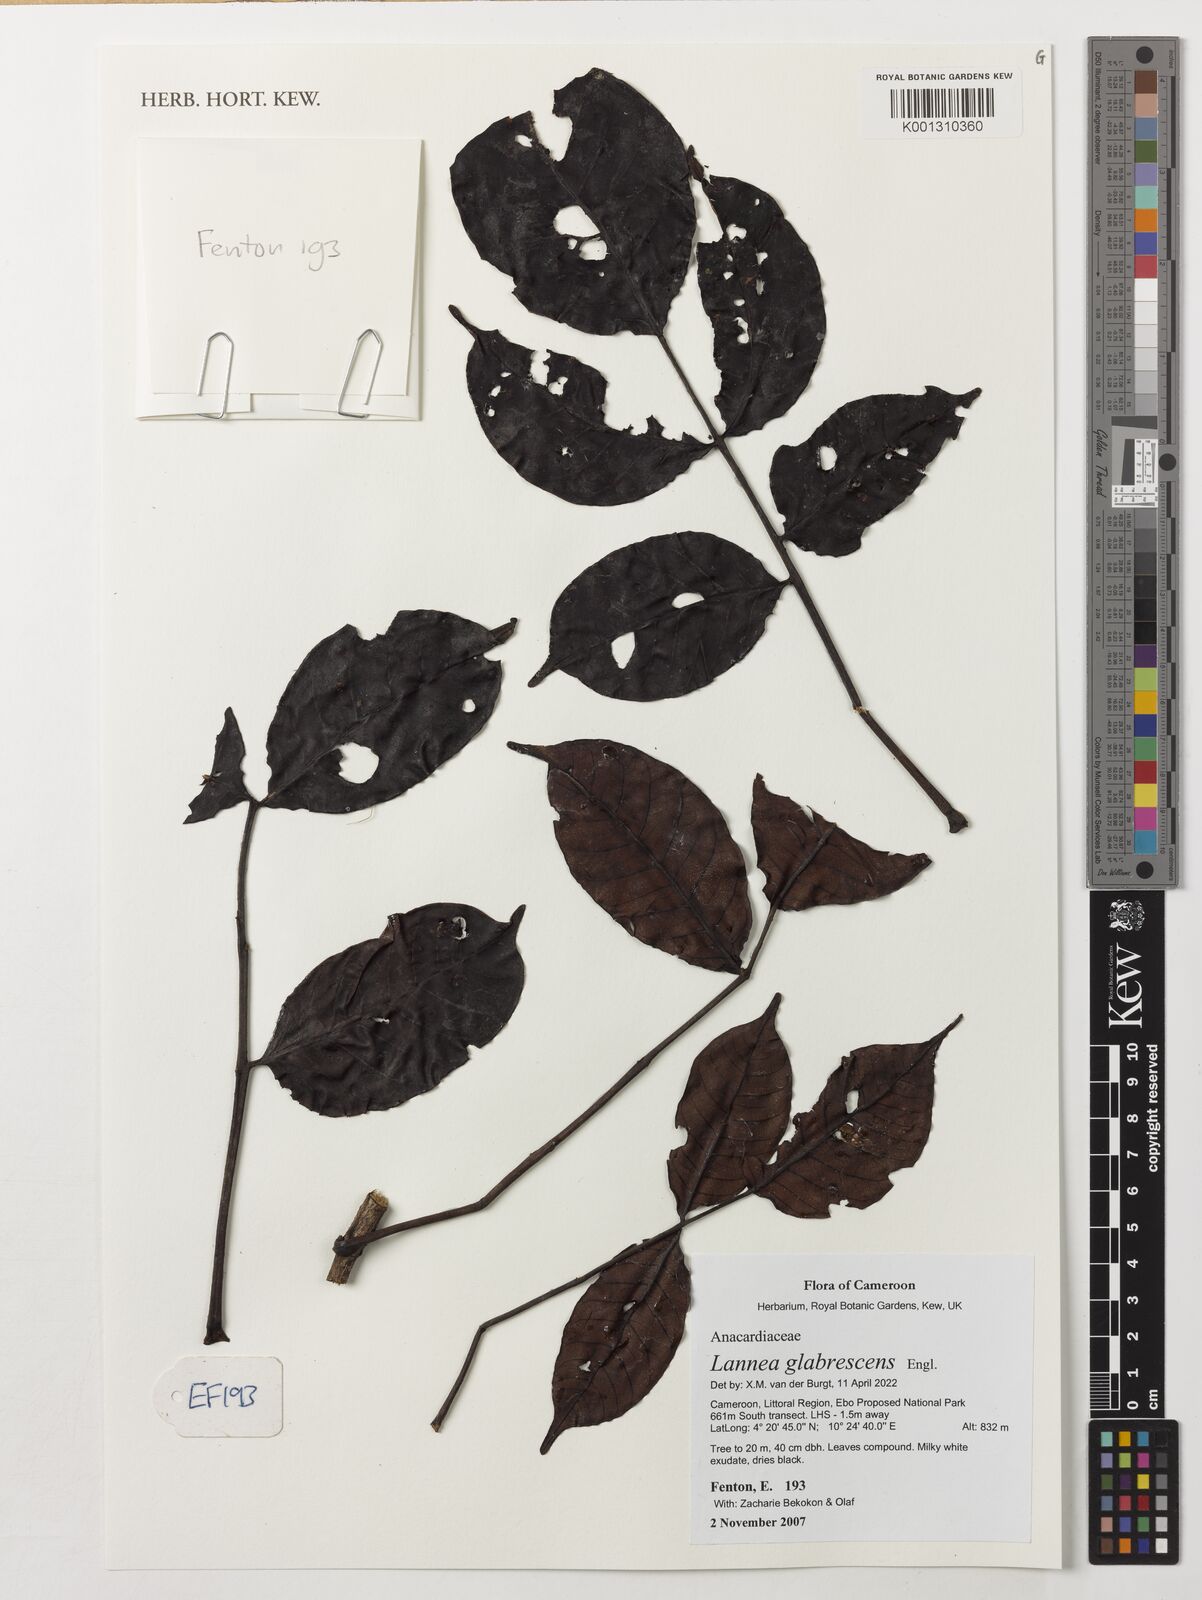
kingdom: Plantae
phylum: Tracheophyta
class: Magnoliopsida
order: Sapindales
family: Anacardiaceae
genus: Lannea
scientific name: Lannea glabrescens
